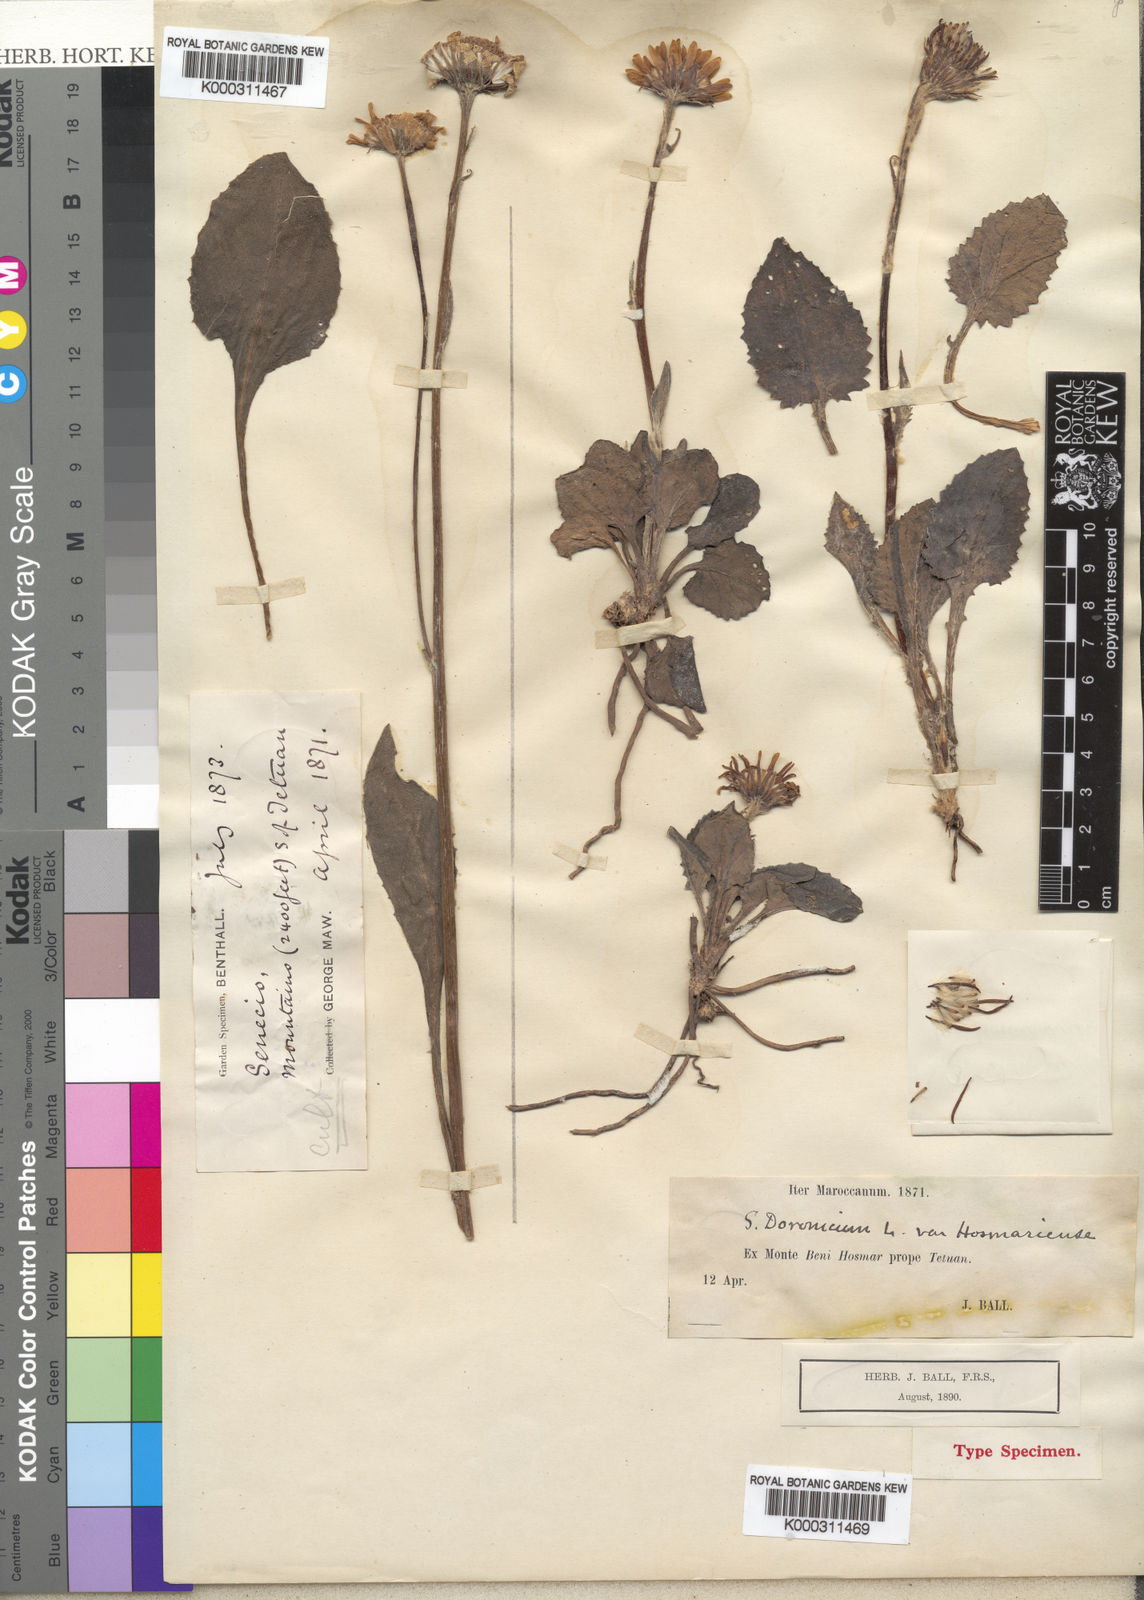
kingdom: Plantae
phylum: Tracheophyta
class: Magnoliopsida
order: Asterales
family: Asteraceae
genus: Senecio
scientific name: Senecio eriopus
